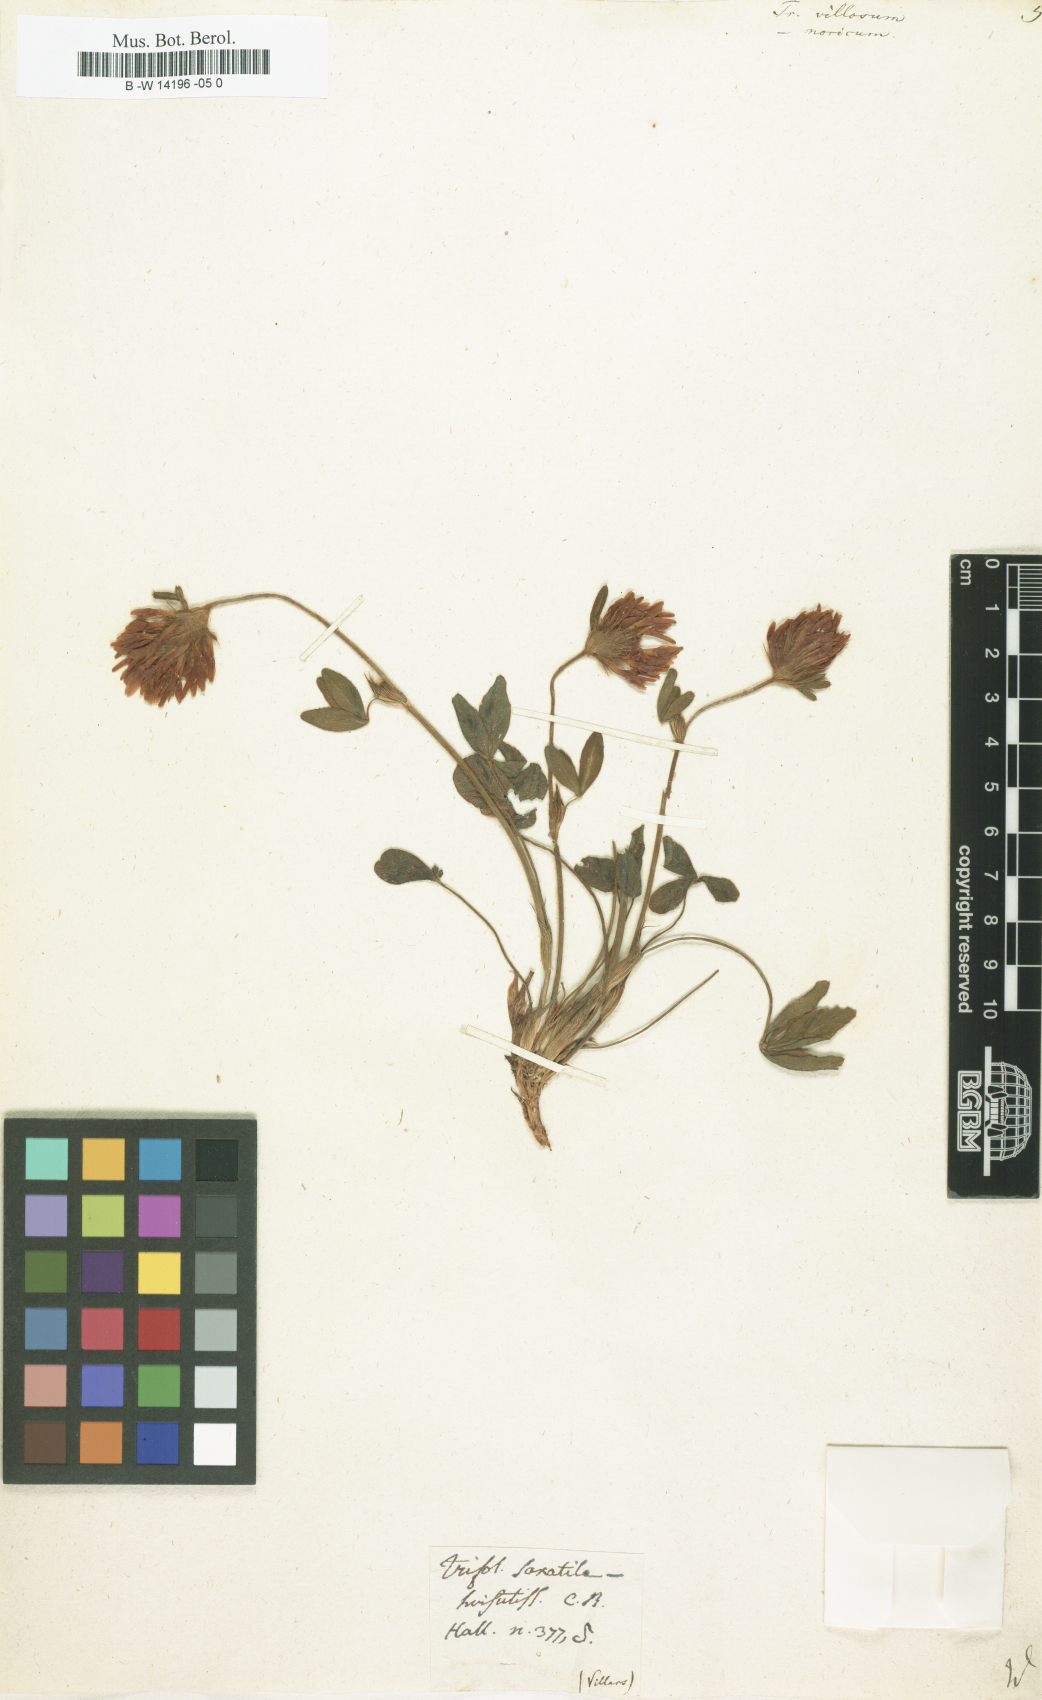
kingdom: Plantae
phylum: Tracheophyta
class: Magnoliopsida
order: Fabales
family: Fabaceae
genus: Trifolium
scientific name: Trifolium
